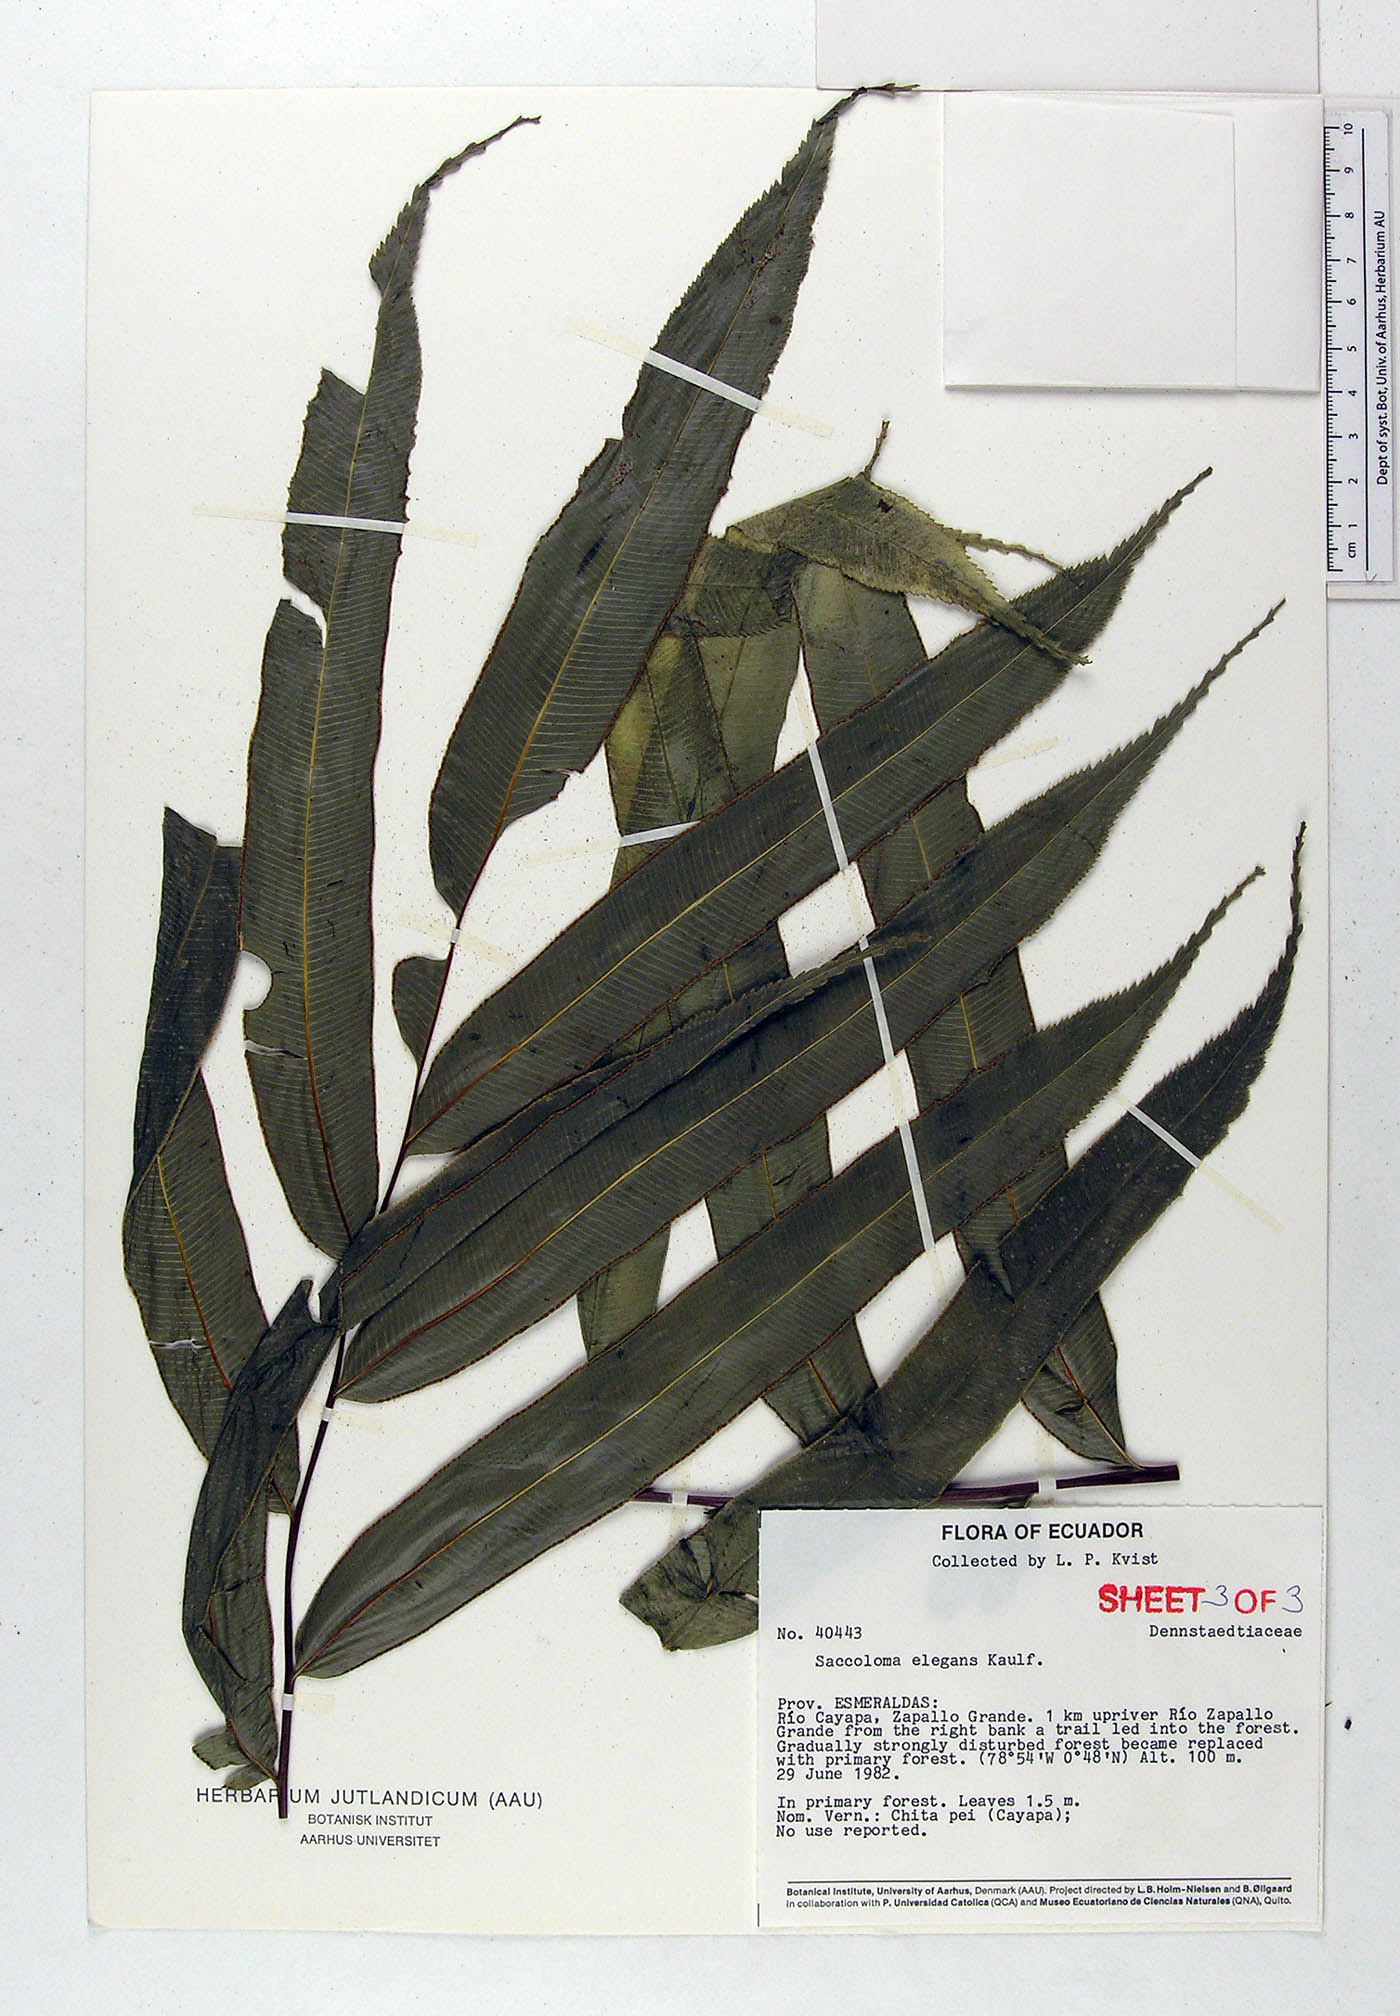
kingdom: Plantae
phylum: Tracheophyta
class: Polypodiopsida
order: Polypodiales
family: Saccolomataceae
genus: Saccoloma
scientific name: Saccoloma elegans
